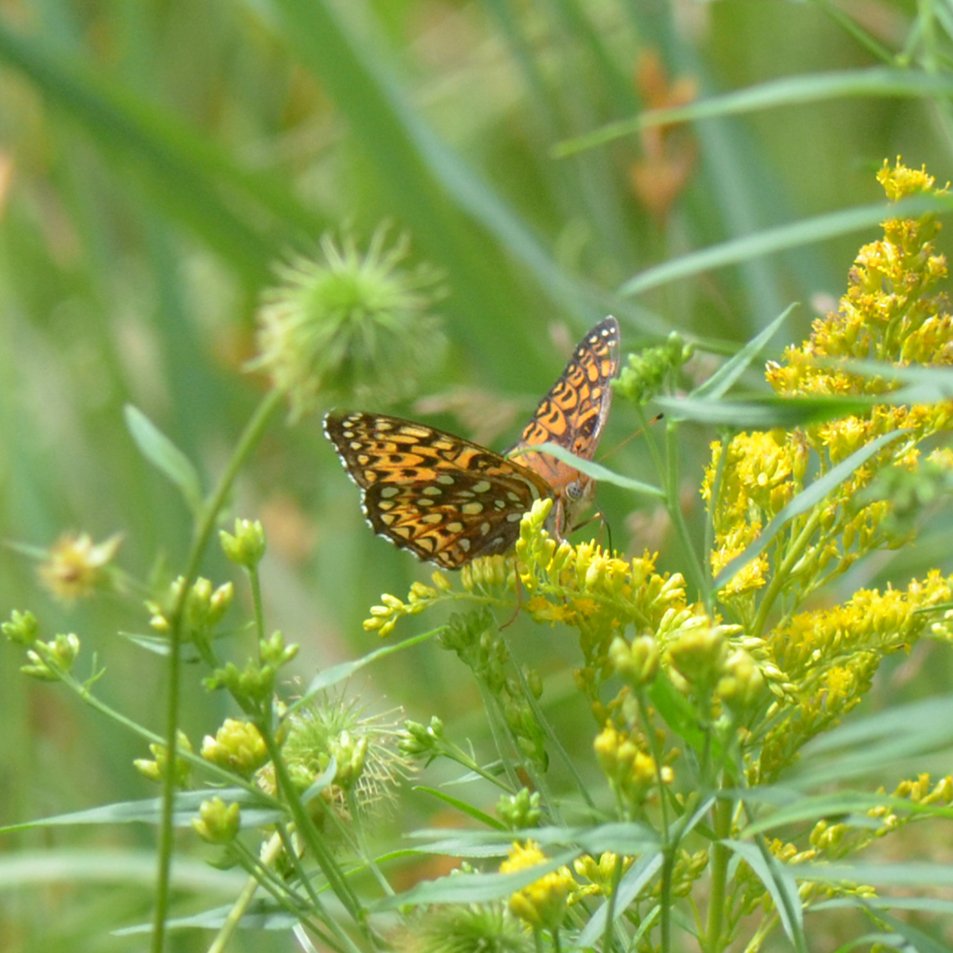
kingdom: Animalia
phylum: Arthropoda
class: Insecta
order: Lepidoptera
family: Nymphalidae
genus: Speyeria
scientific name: Speyeria atlantis
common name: Atlantis Fritillary
